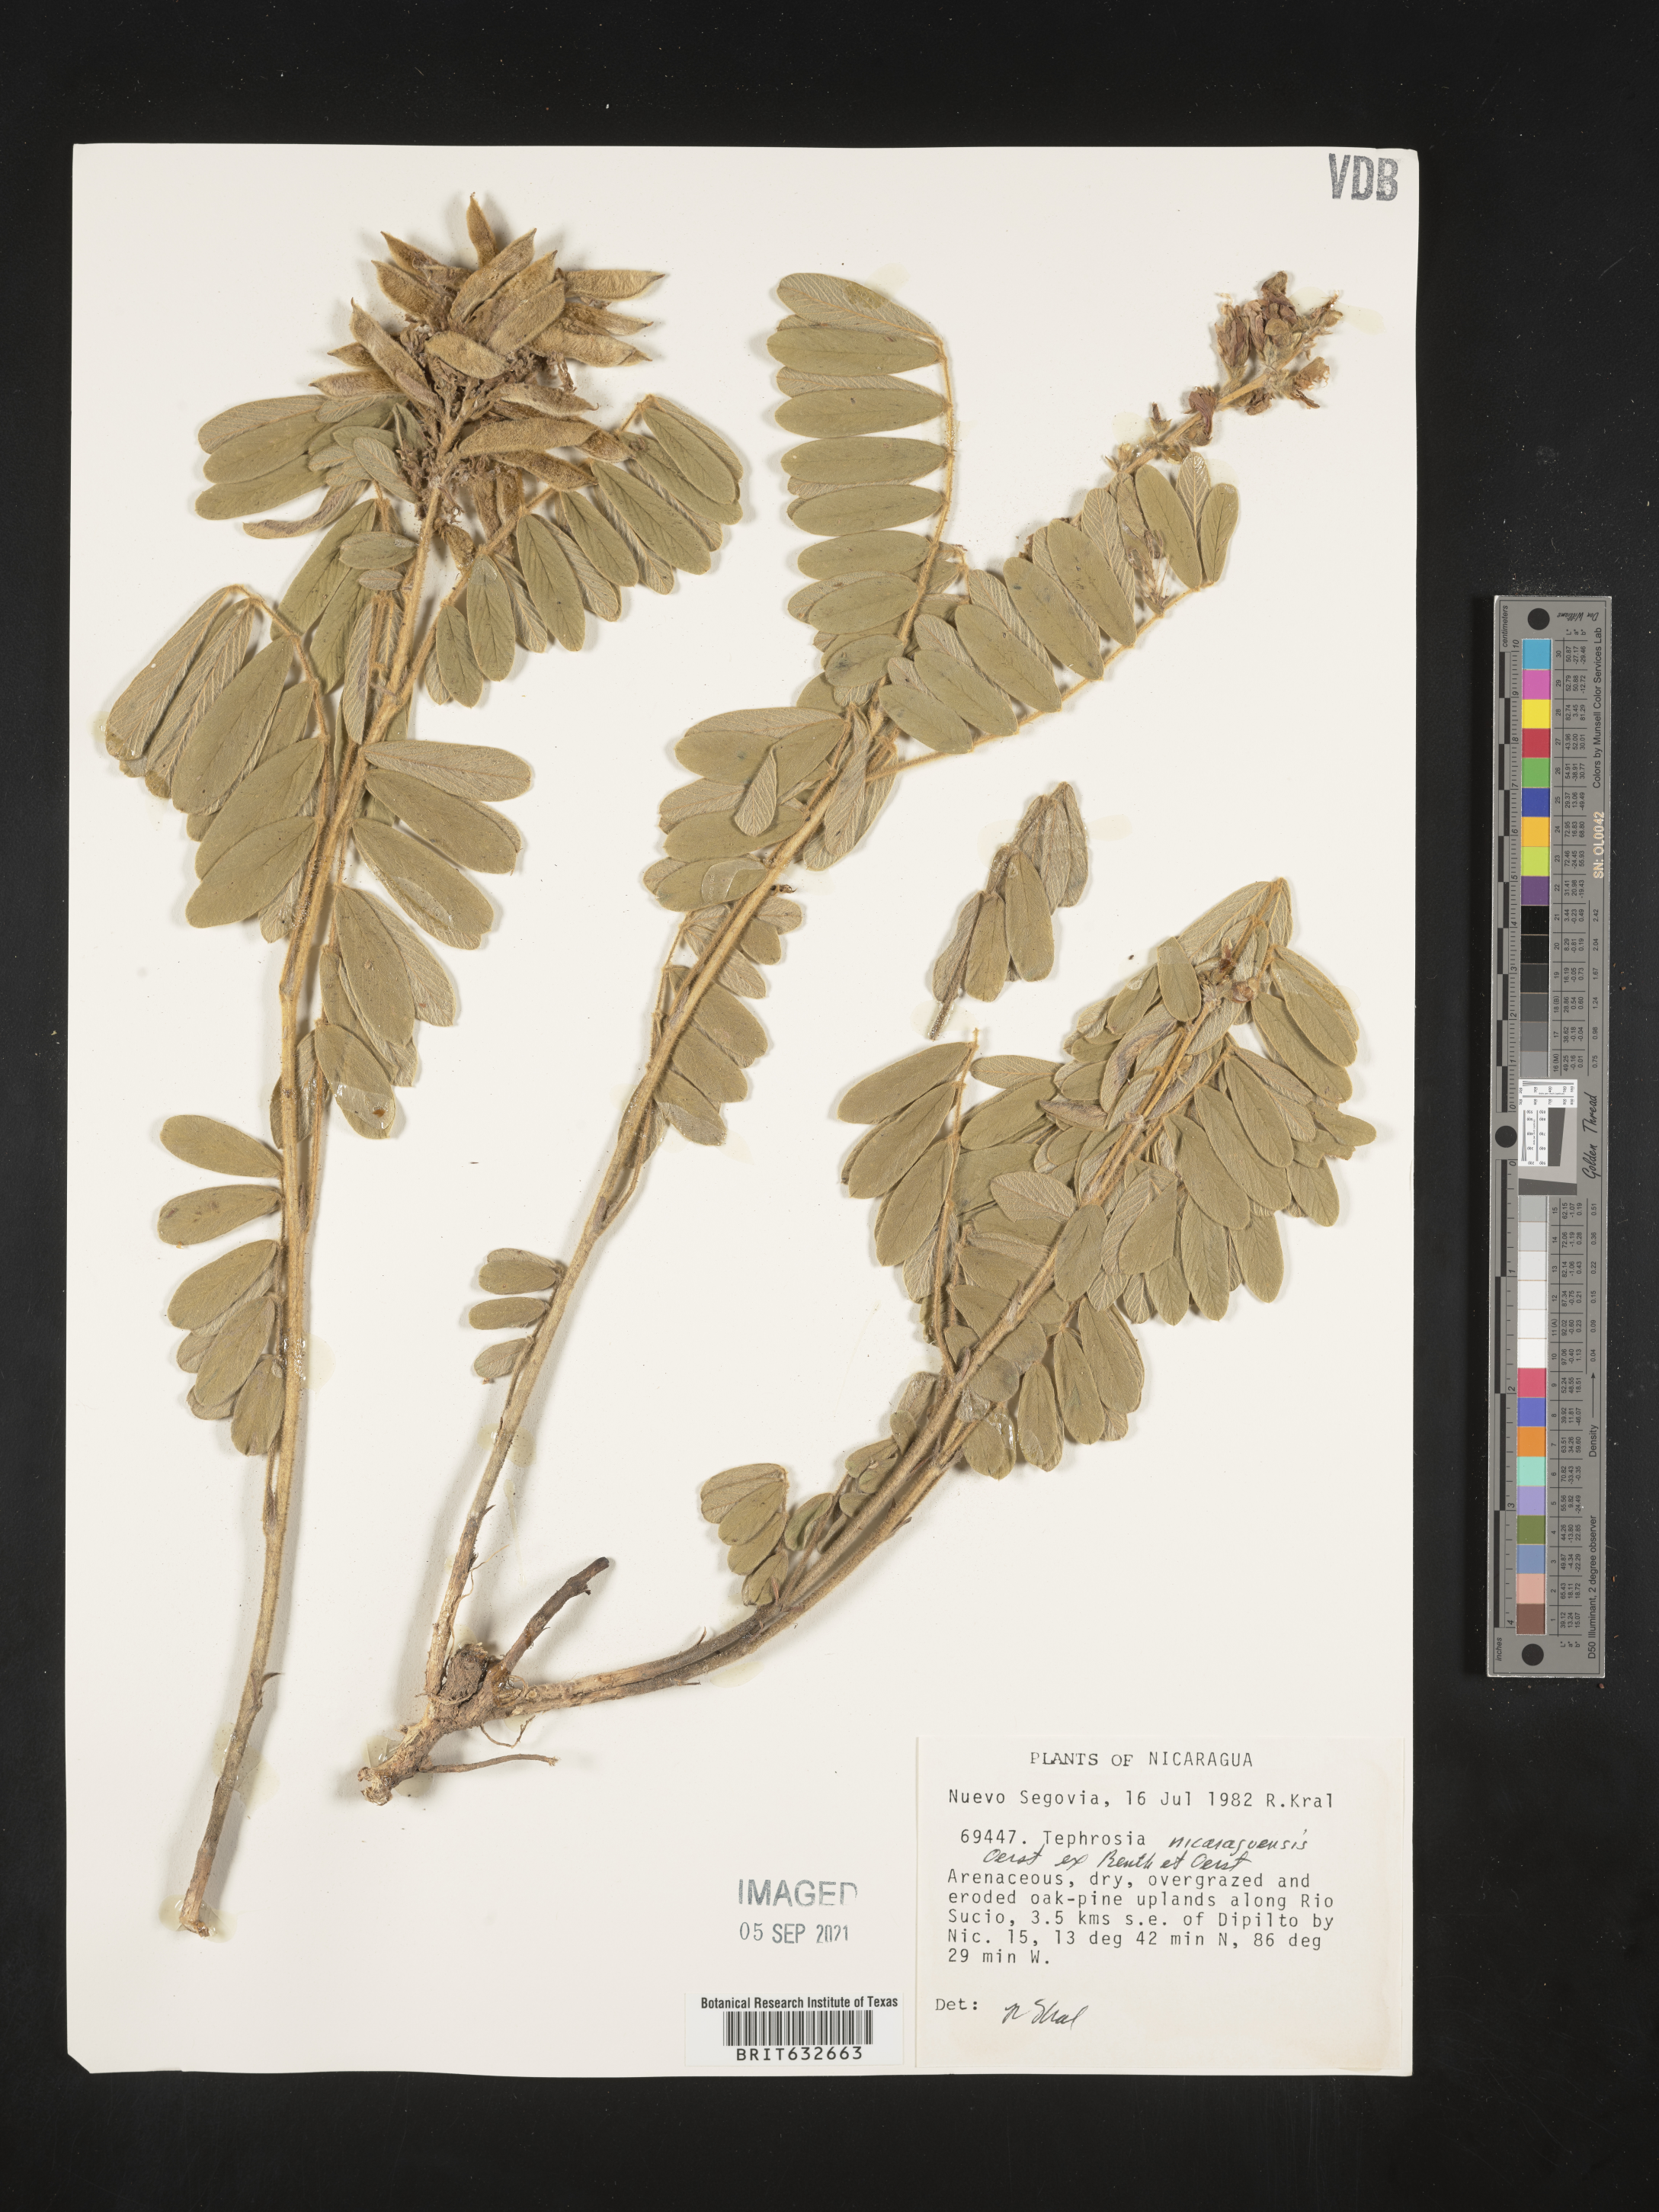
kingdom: Plantae
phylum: Tracheophyta
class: Magnoliopsida
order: Fabales
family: Fabaceae
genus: Tephrosia
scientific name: Tephrosia
